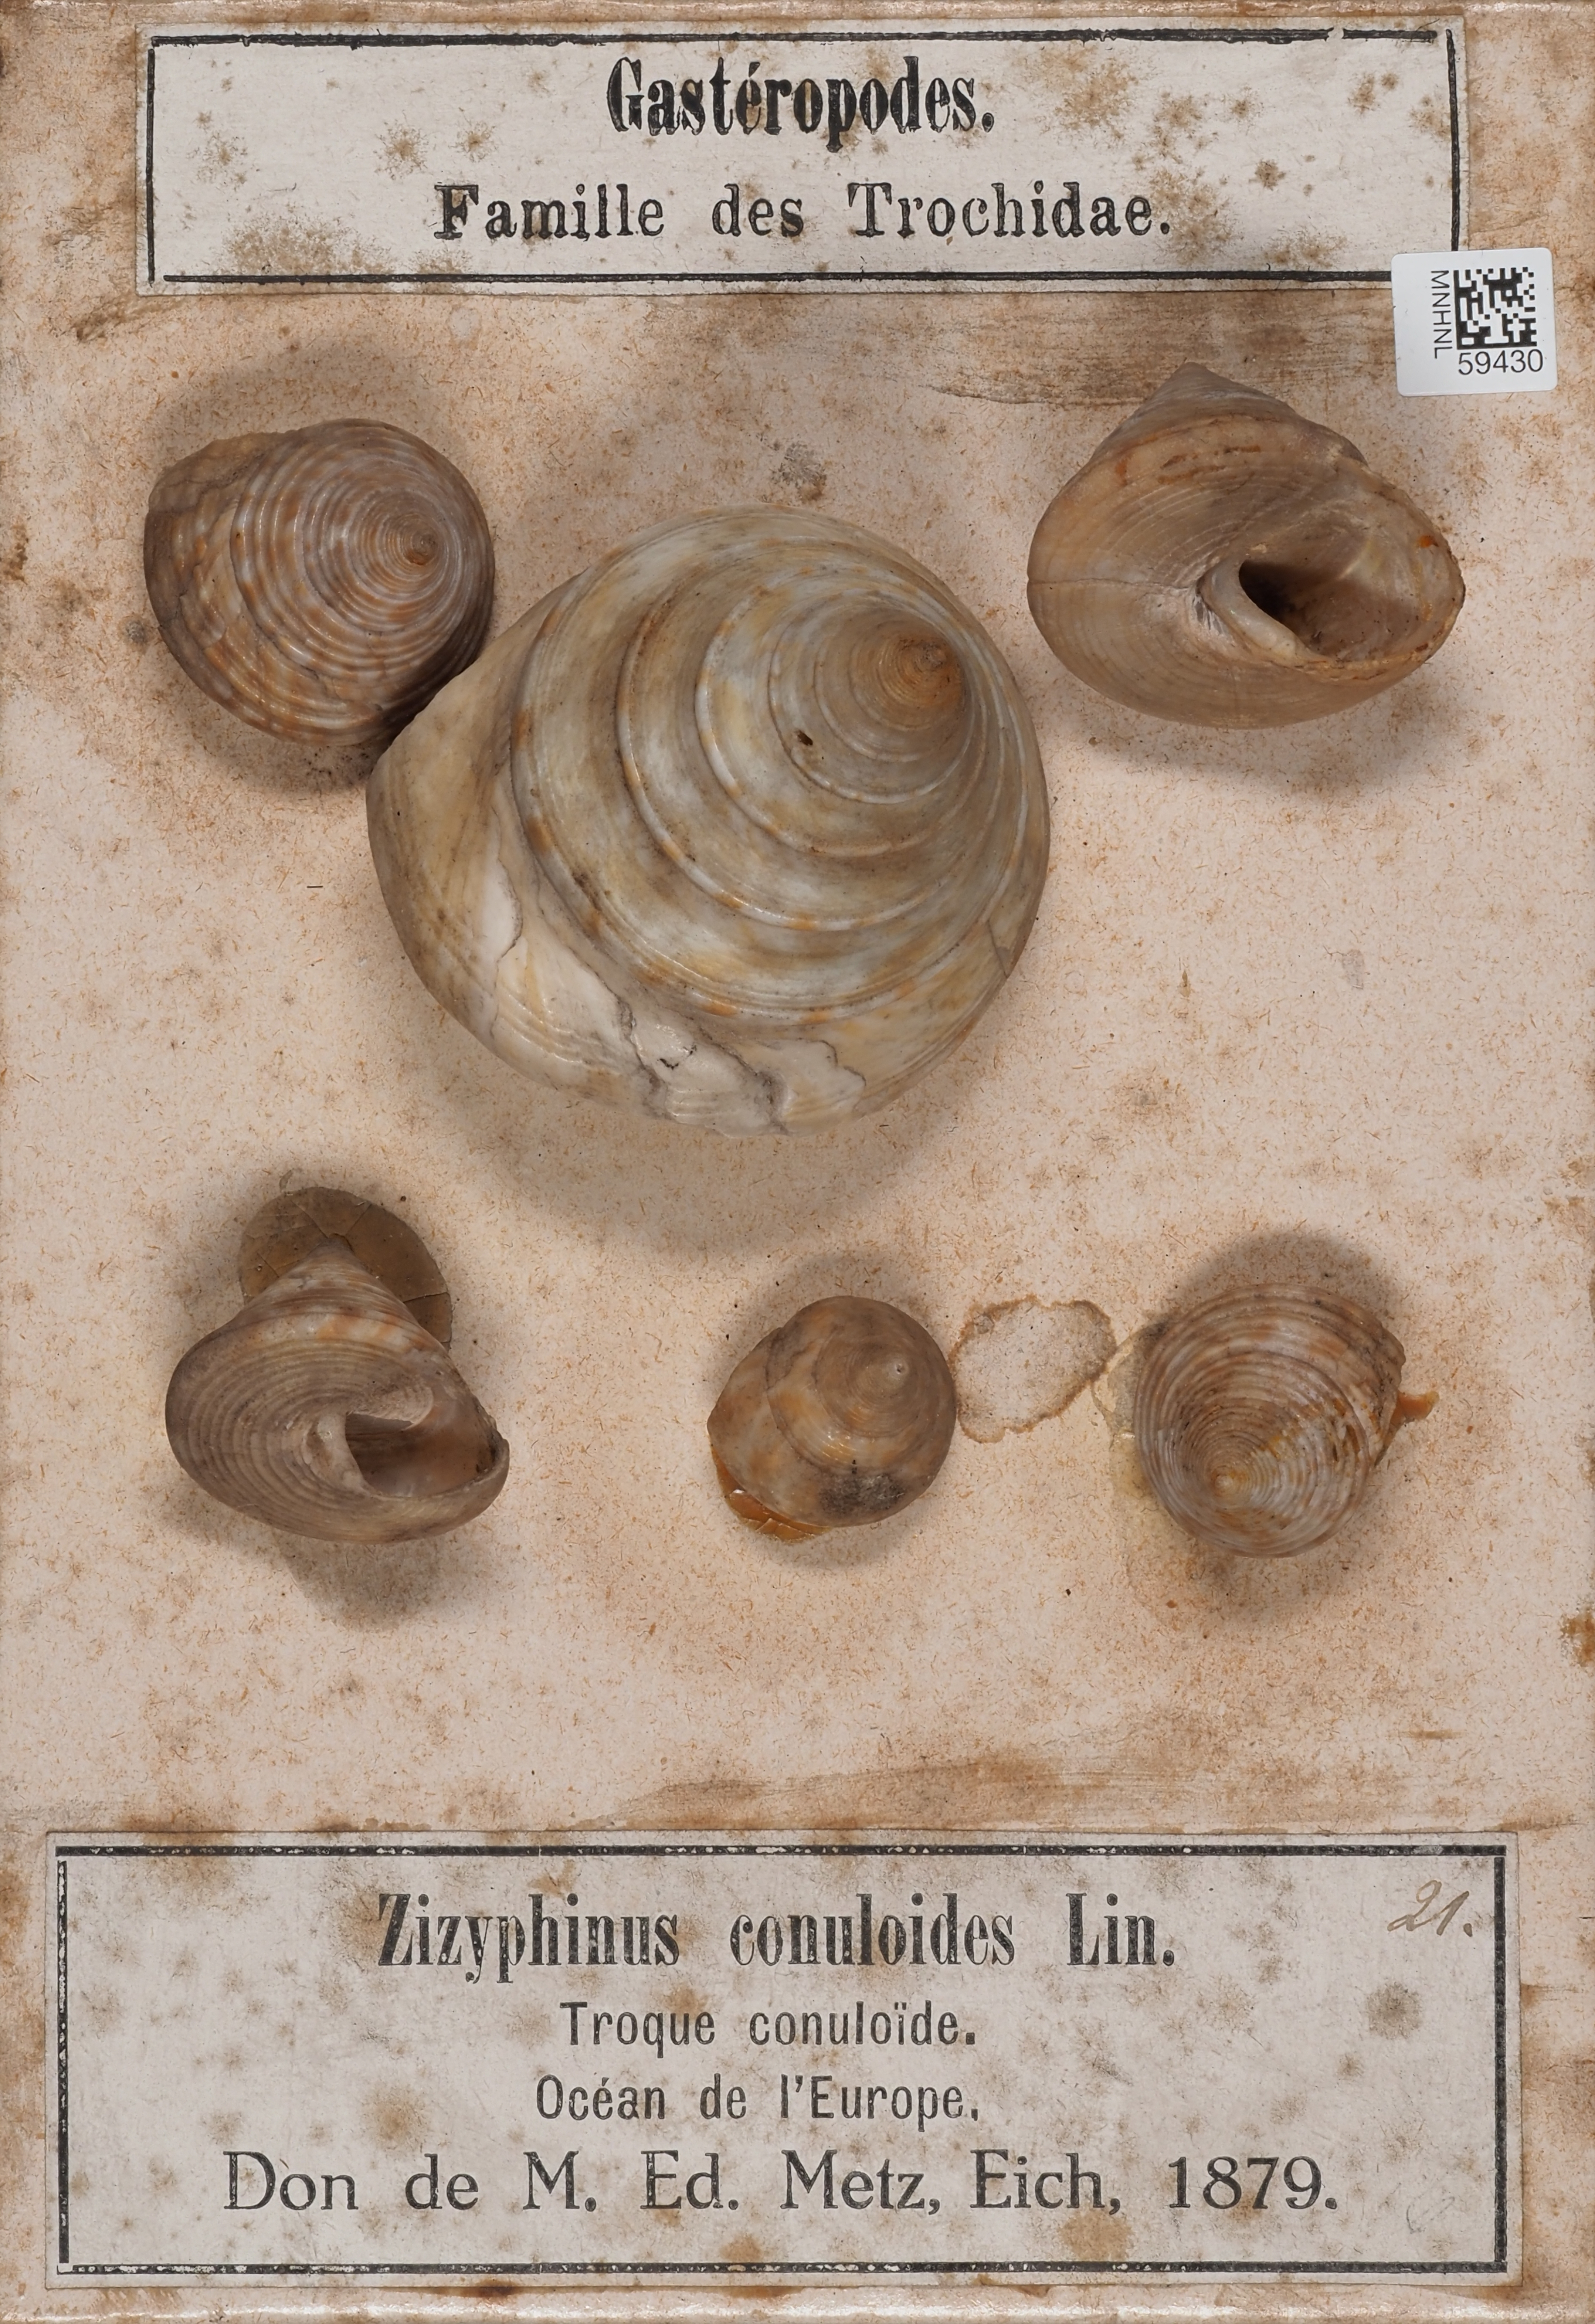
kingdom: Animalia
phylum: Mollusca
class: Gastropoda
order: Trochida
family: Calliostomatidae
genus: Calliostoma
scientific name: Calliostoma
